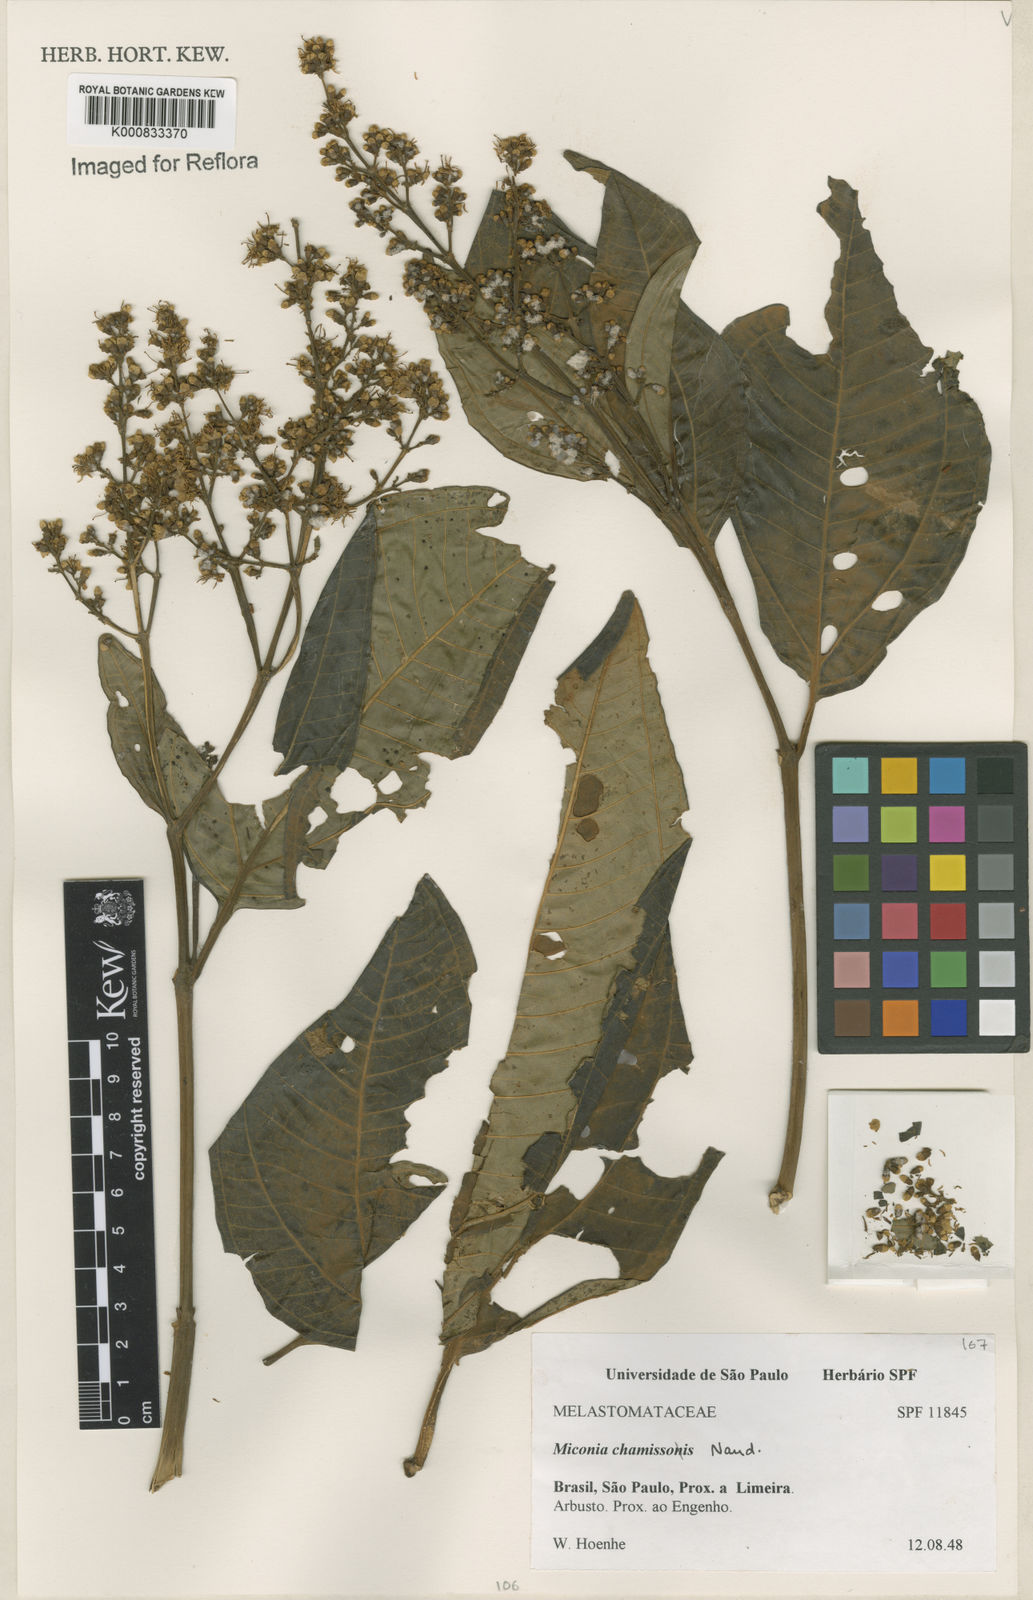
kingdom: Plantae
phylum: Tracheophyta
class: Magnoliopsida
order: Myrtales
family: Melastomataceae
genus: Miconia
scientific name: Miconia chamissois
